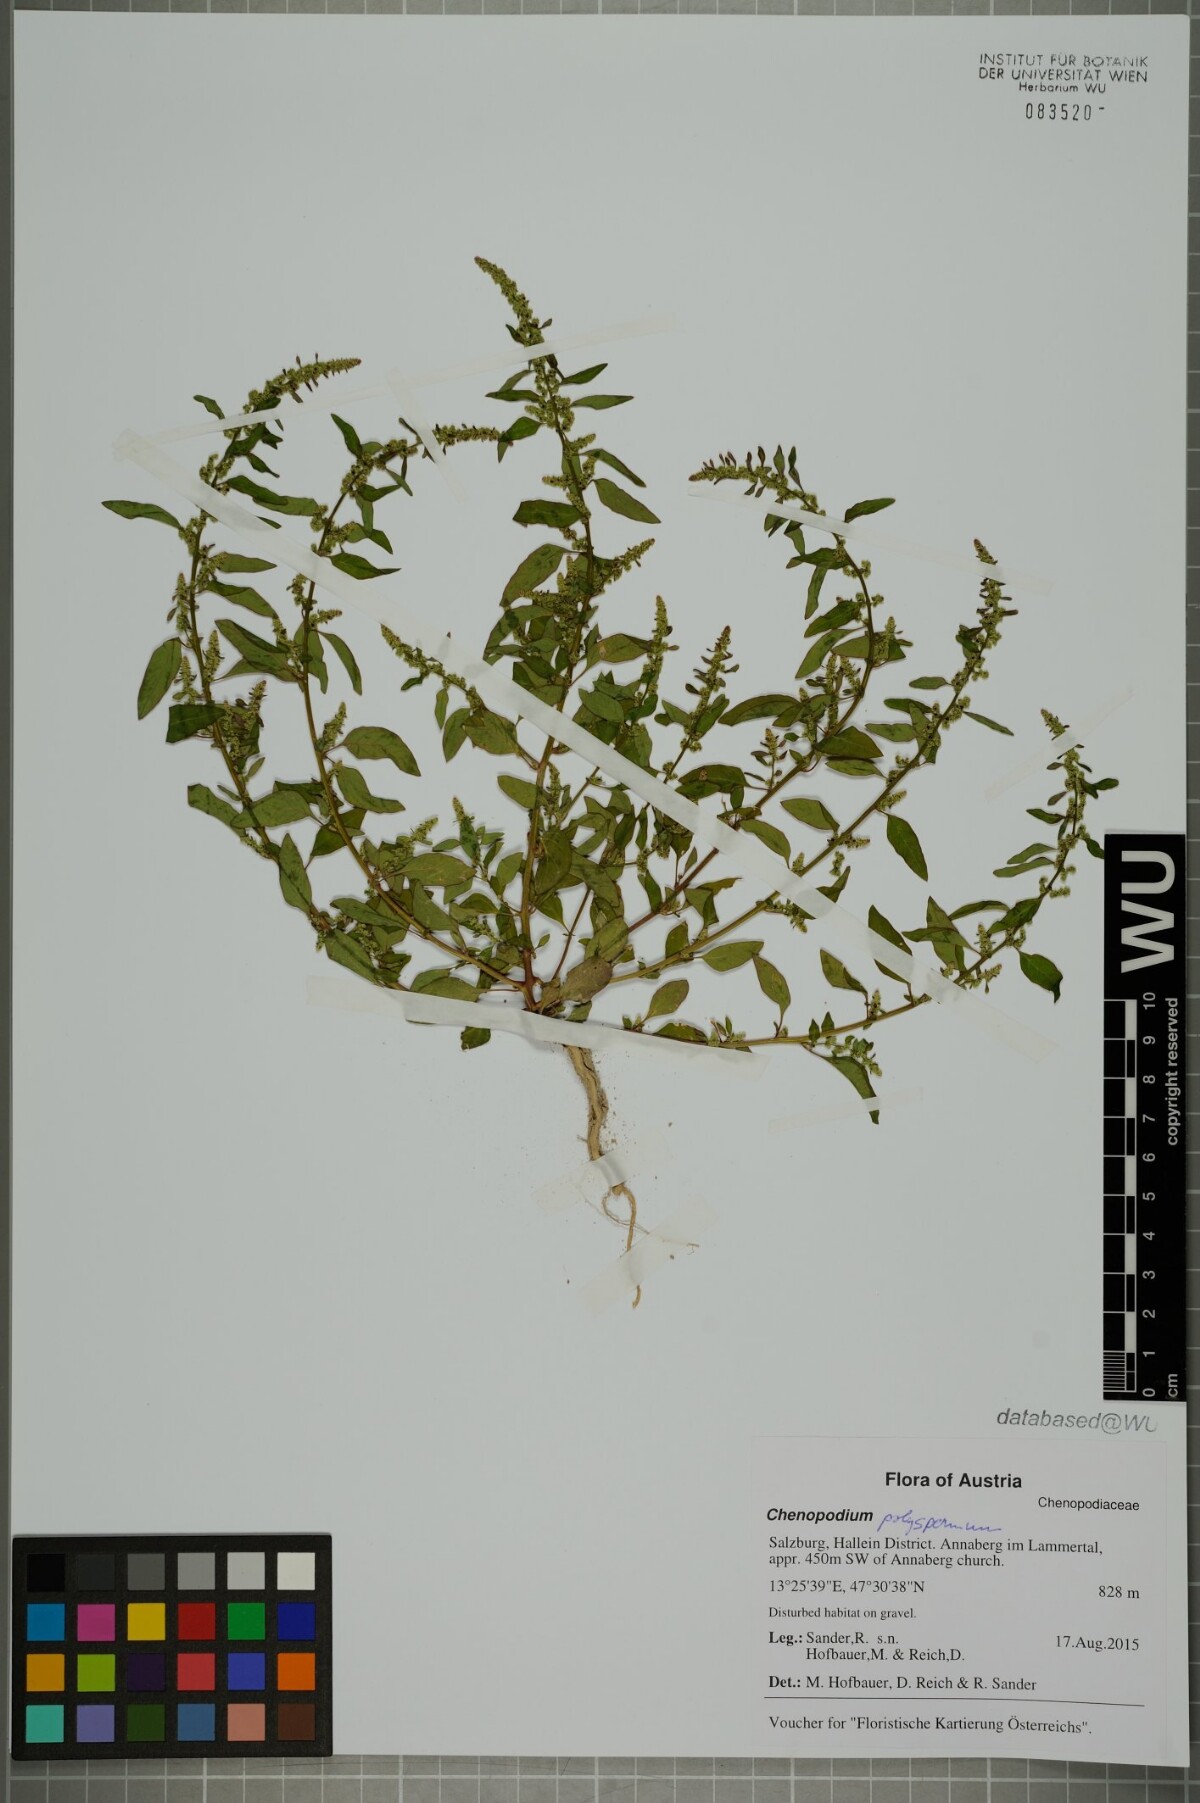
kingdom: Plantae
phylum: Tracheophyta
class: Magnoliopsida
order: Caryophyllales
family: Amaranthaceae
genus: Lipandra
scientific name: Lipandra polysperma
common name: Many-seed goosefoot
